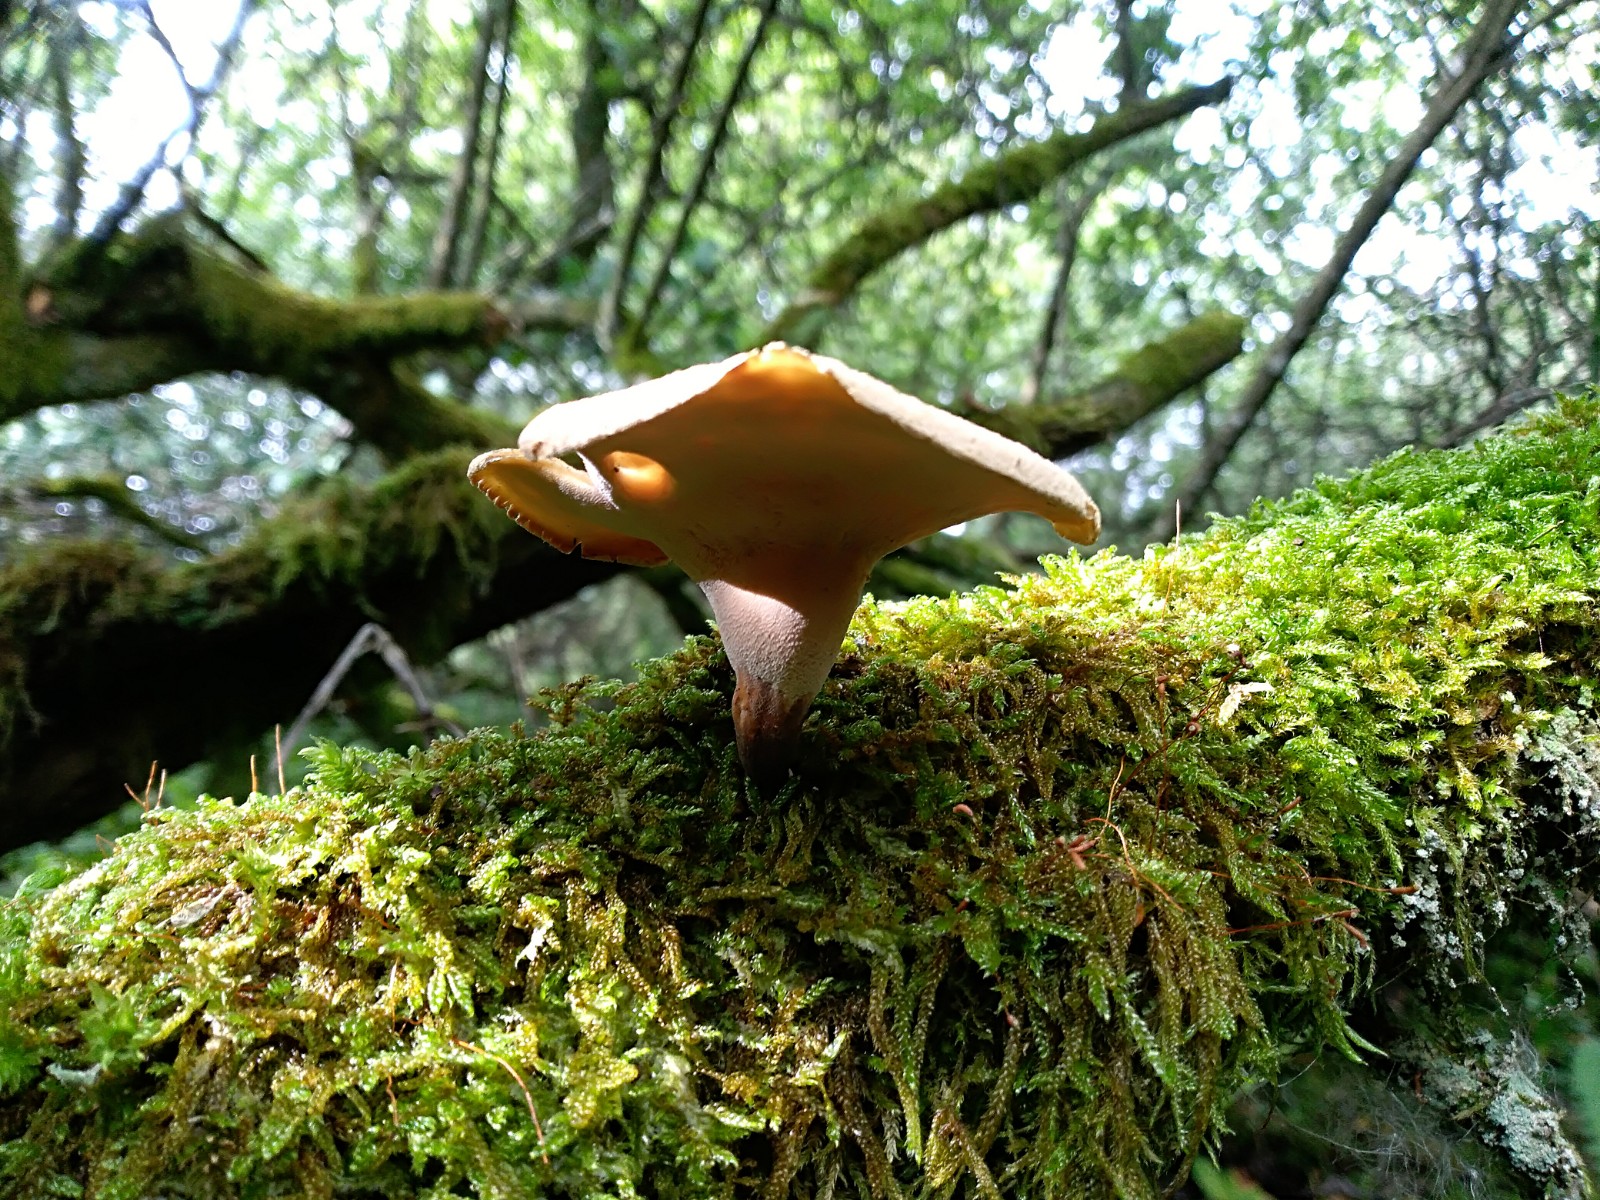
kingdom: Fungi
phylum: Basidiomycota
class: Agaricomycetes
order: Polyporales
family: Polyporaceae
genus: Picipes
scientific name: Picipes tubaeformis
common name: trompet-stilkporesvamp
